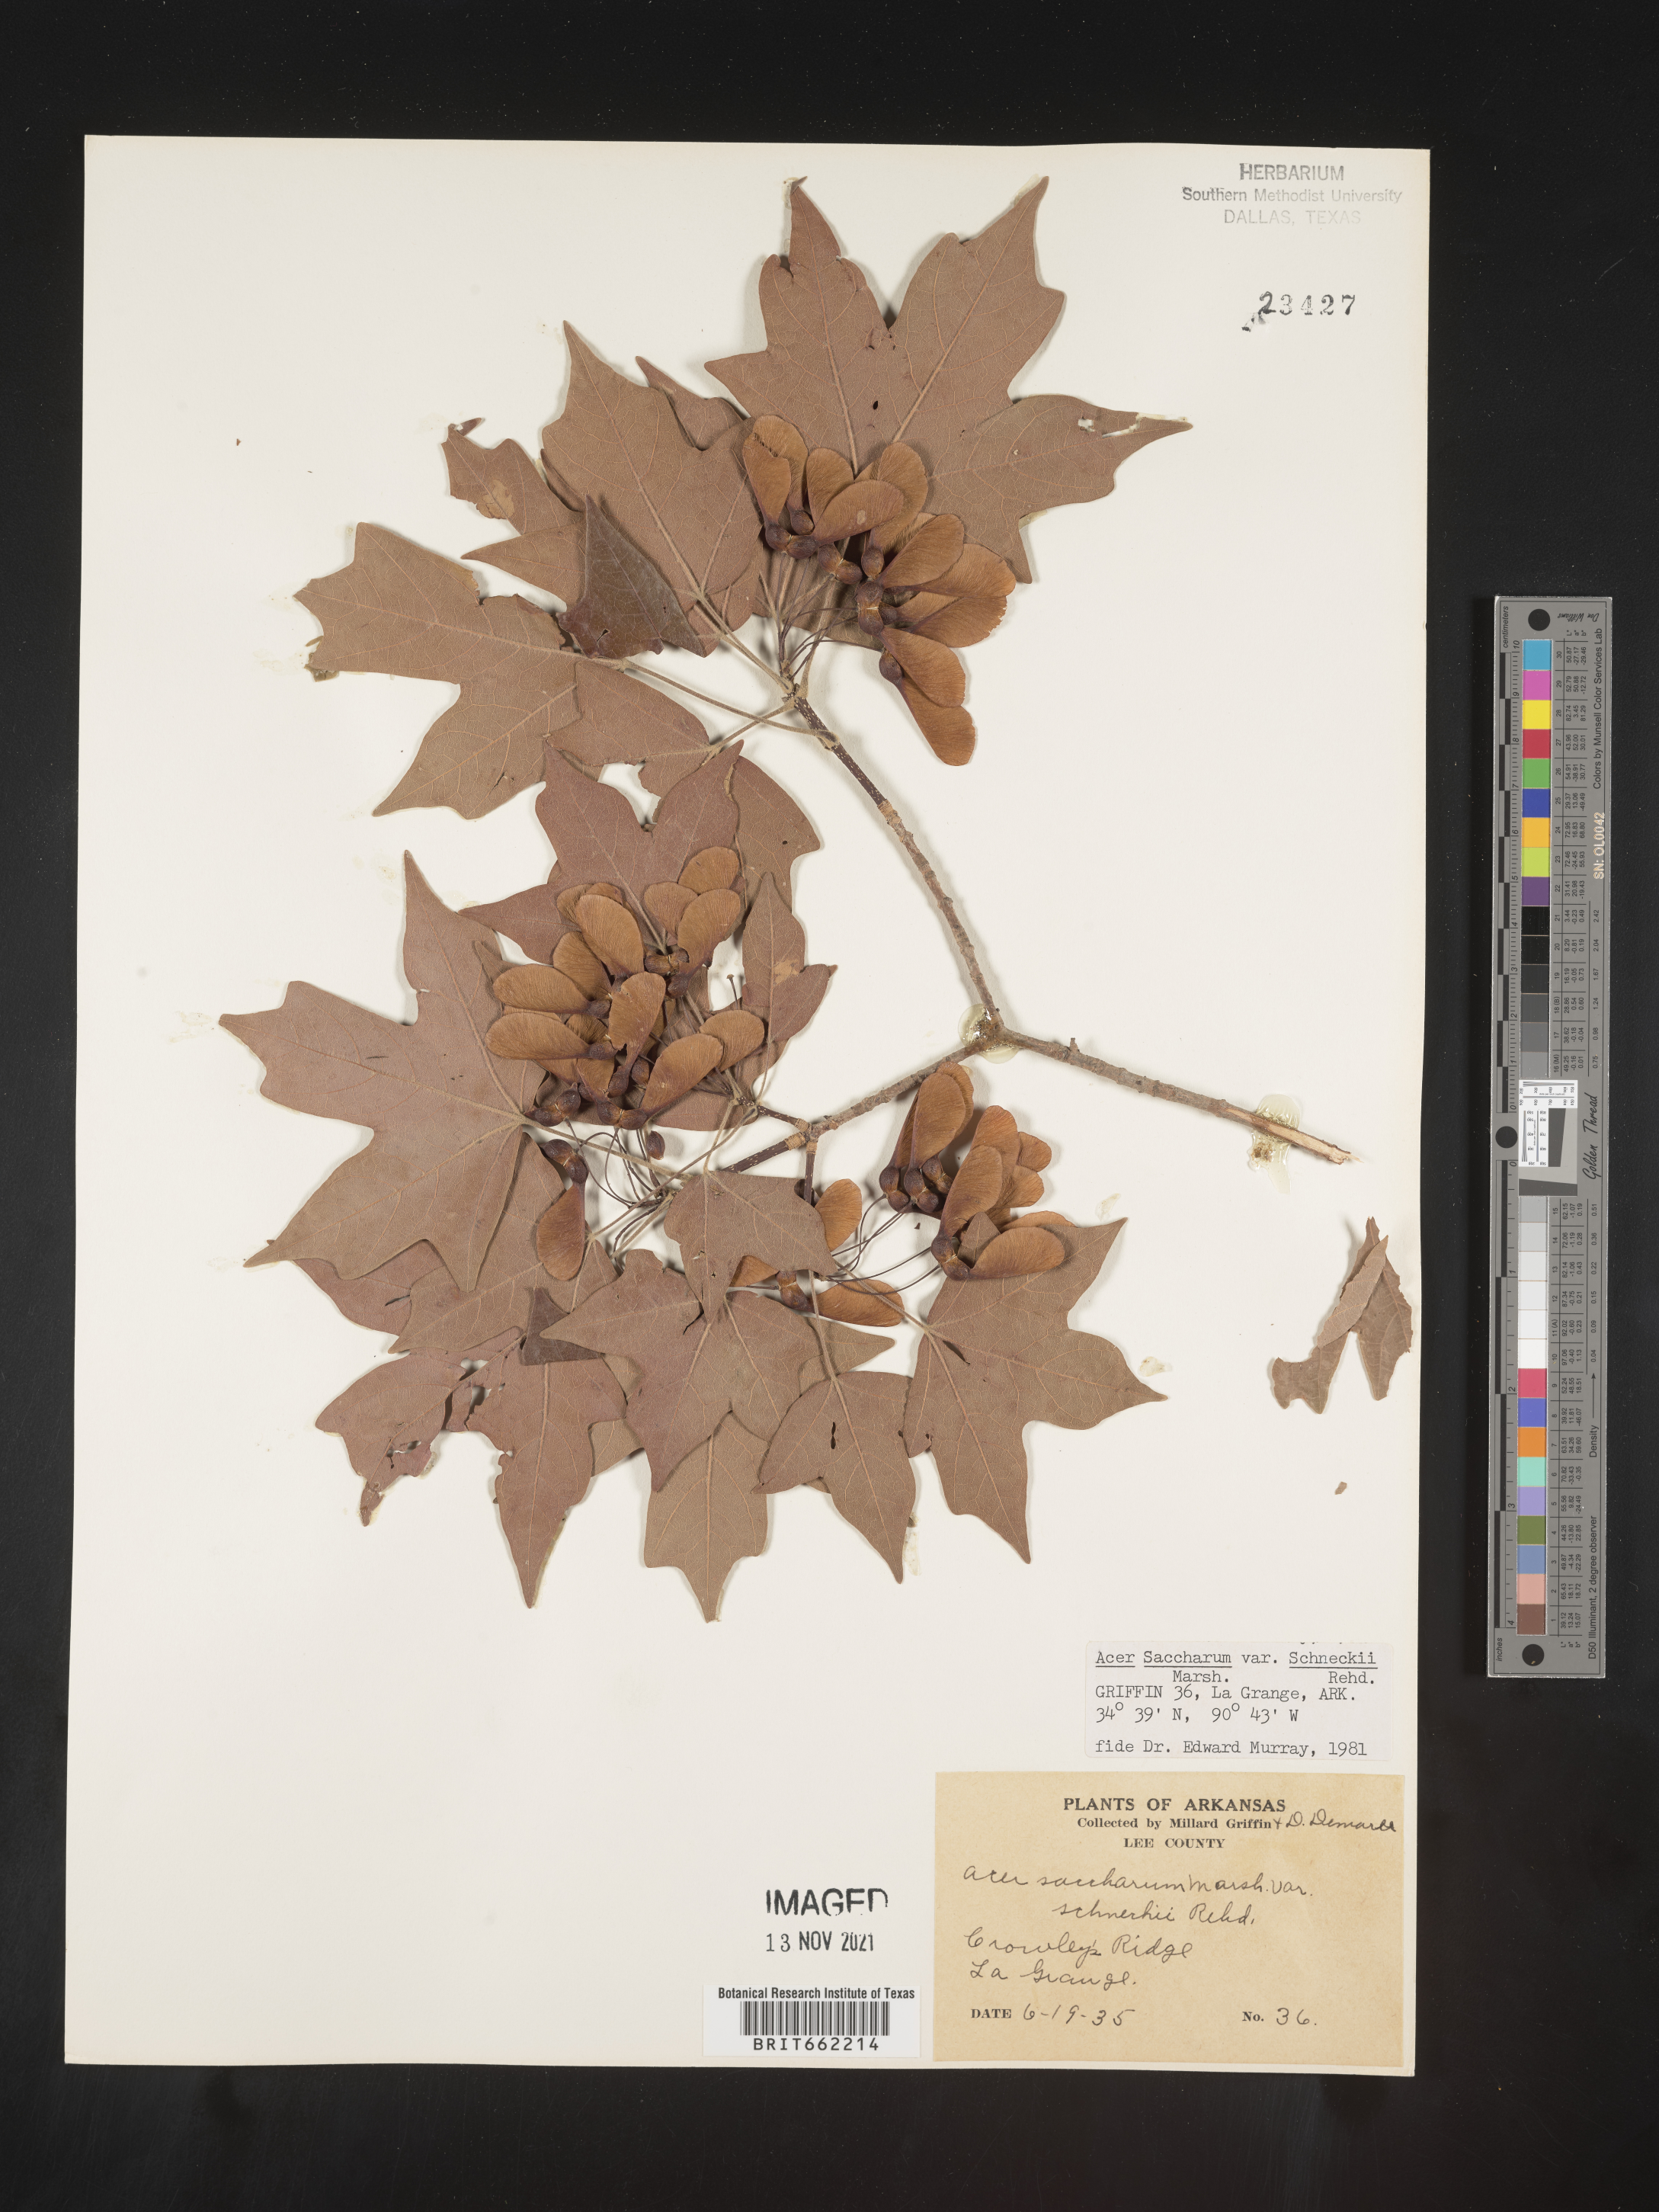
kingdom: Plantae
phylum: Tracheophyta
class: Magnoliopsida
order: Sapindales
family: Sapindaceae
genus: Acer
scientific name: Acer saccharum
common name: Sugar maple
